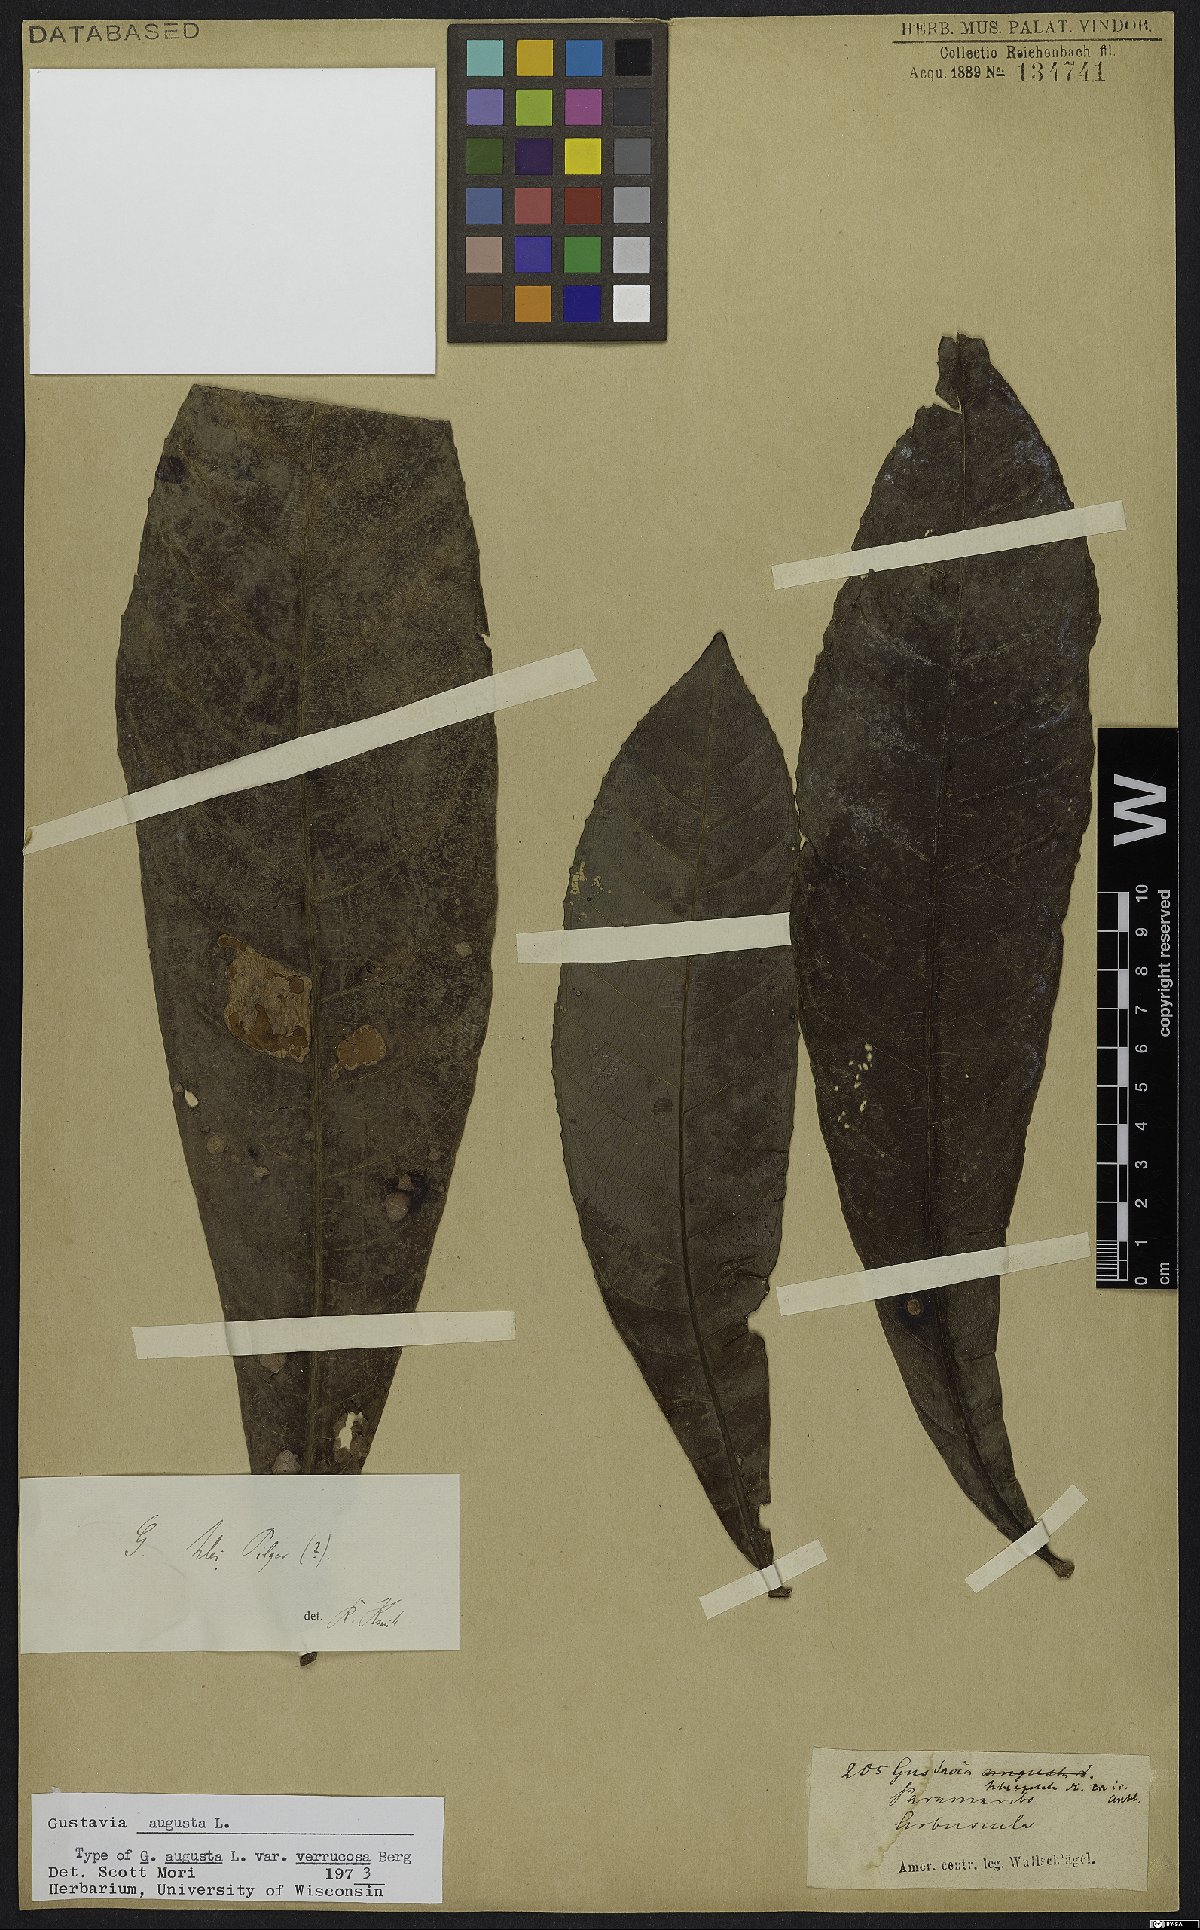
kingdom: Plantae
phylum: Tracheophyta
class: Magnoliopsida
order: Ericales
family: Lecythidaceae
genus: Gustavia
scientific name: Gustavia augusta
